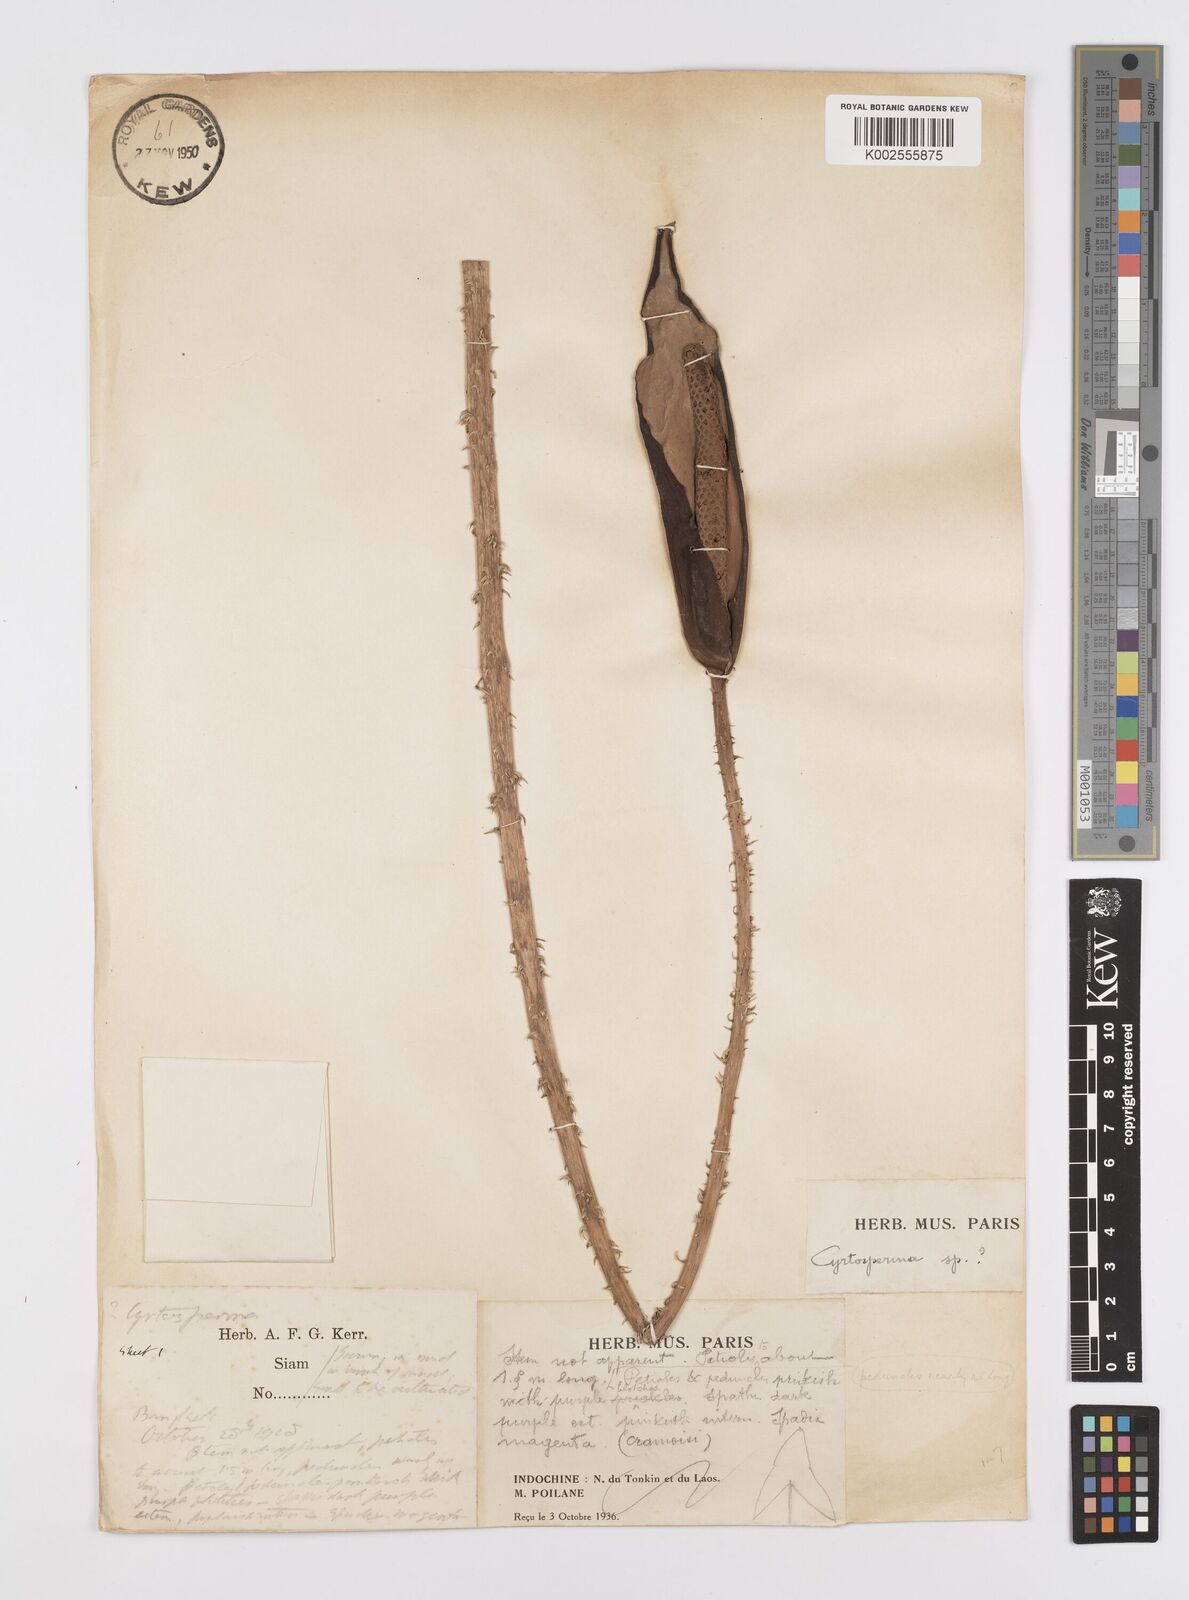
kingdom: Plantae
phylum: Tracheophyta
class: Liliopsida
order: Alismatales
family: Araceae
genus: Cyrtosperma
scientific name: Cyrtosperma merkusii
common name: Giant swamp-taro
